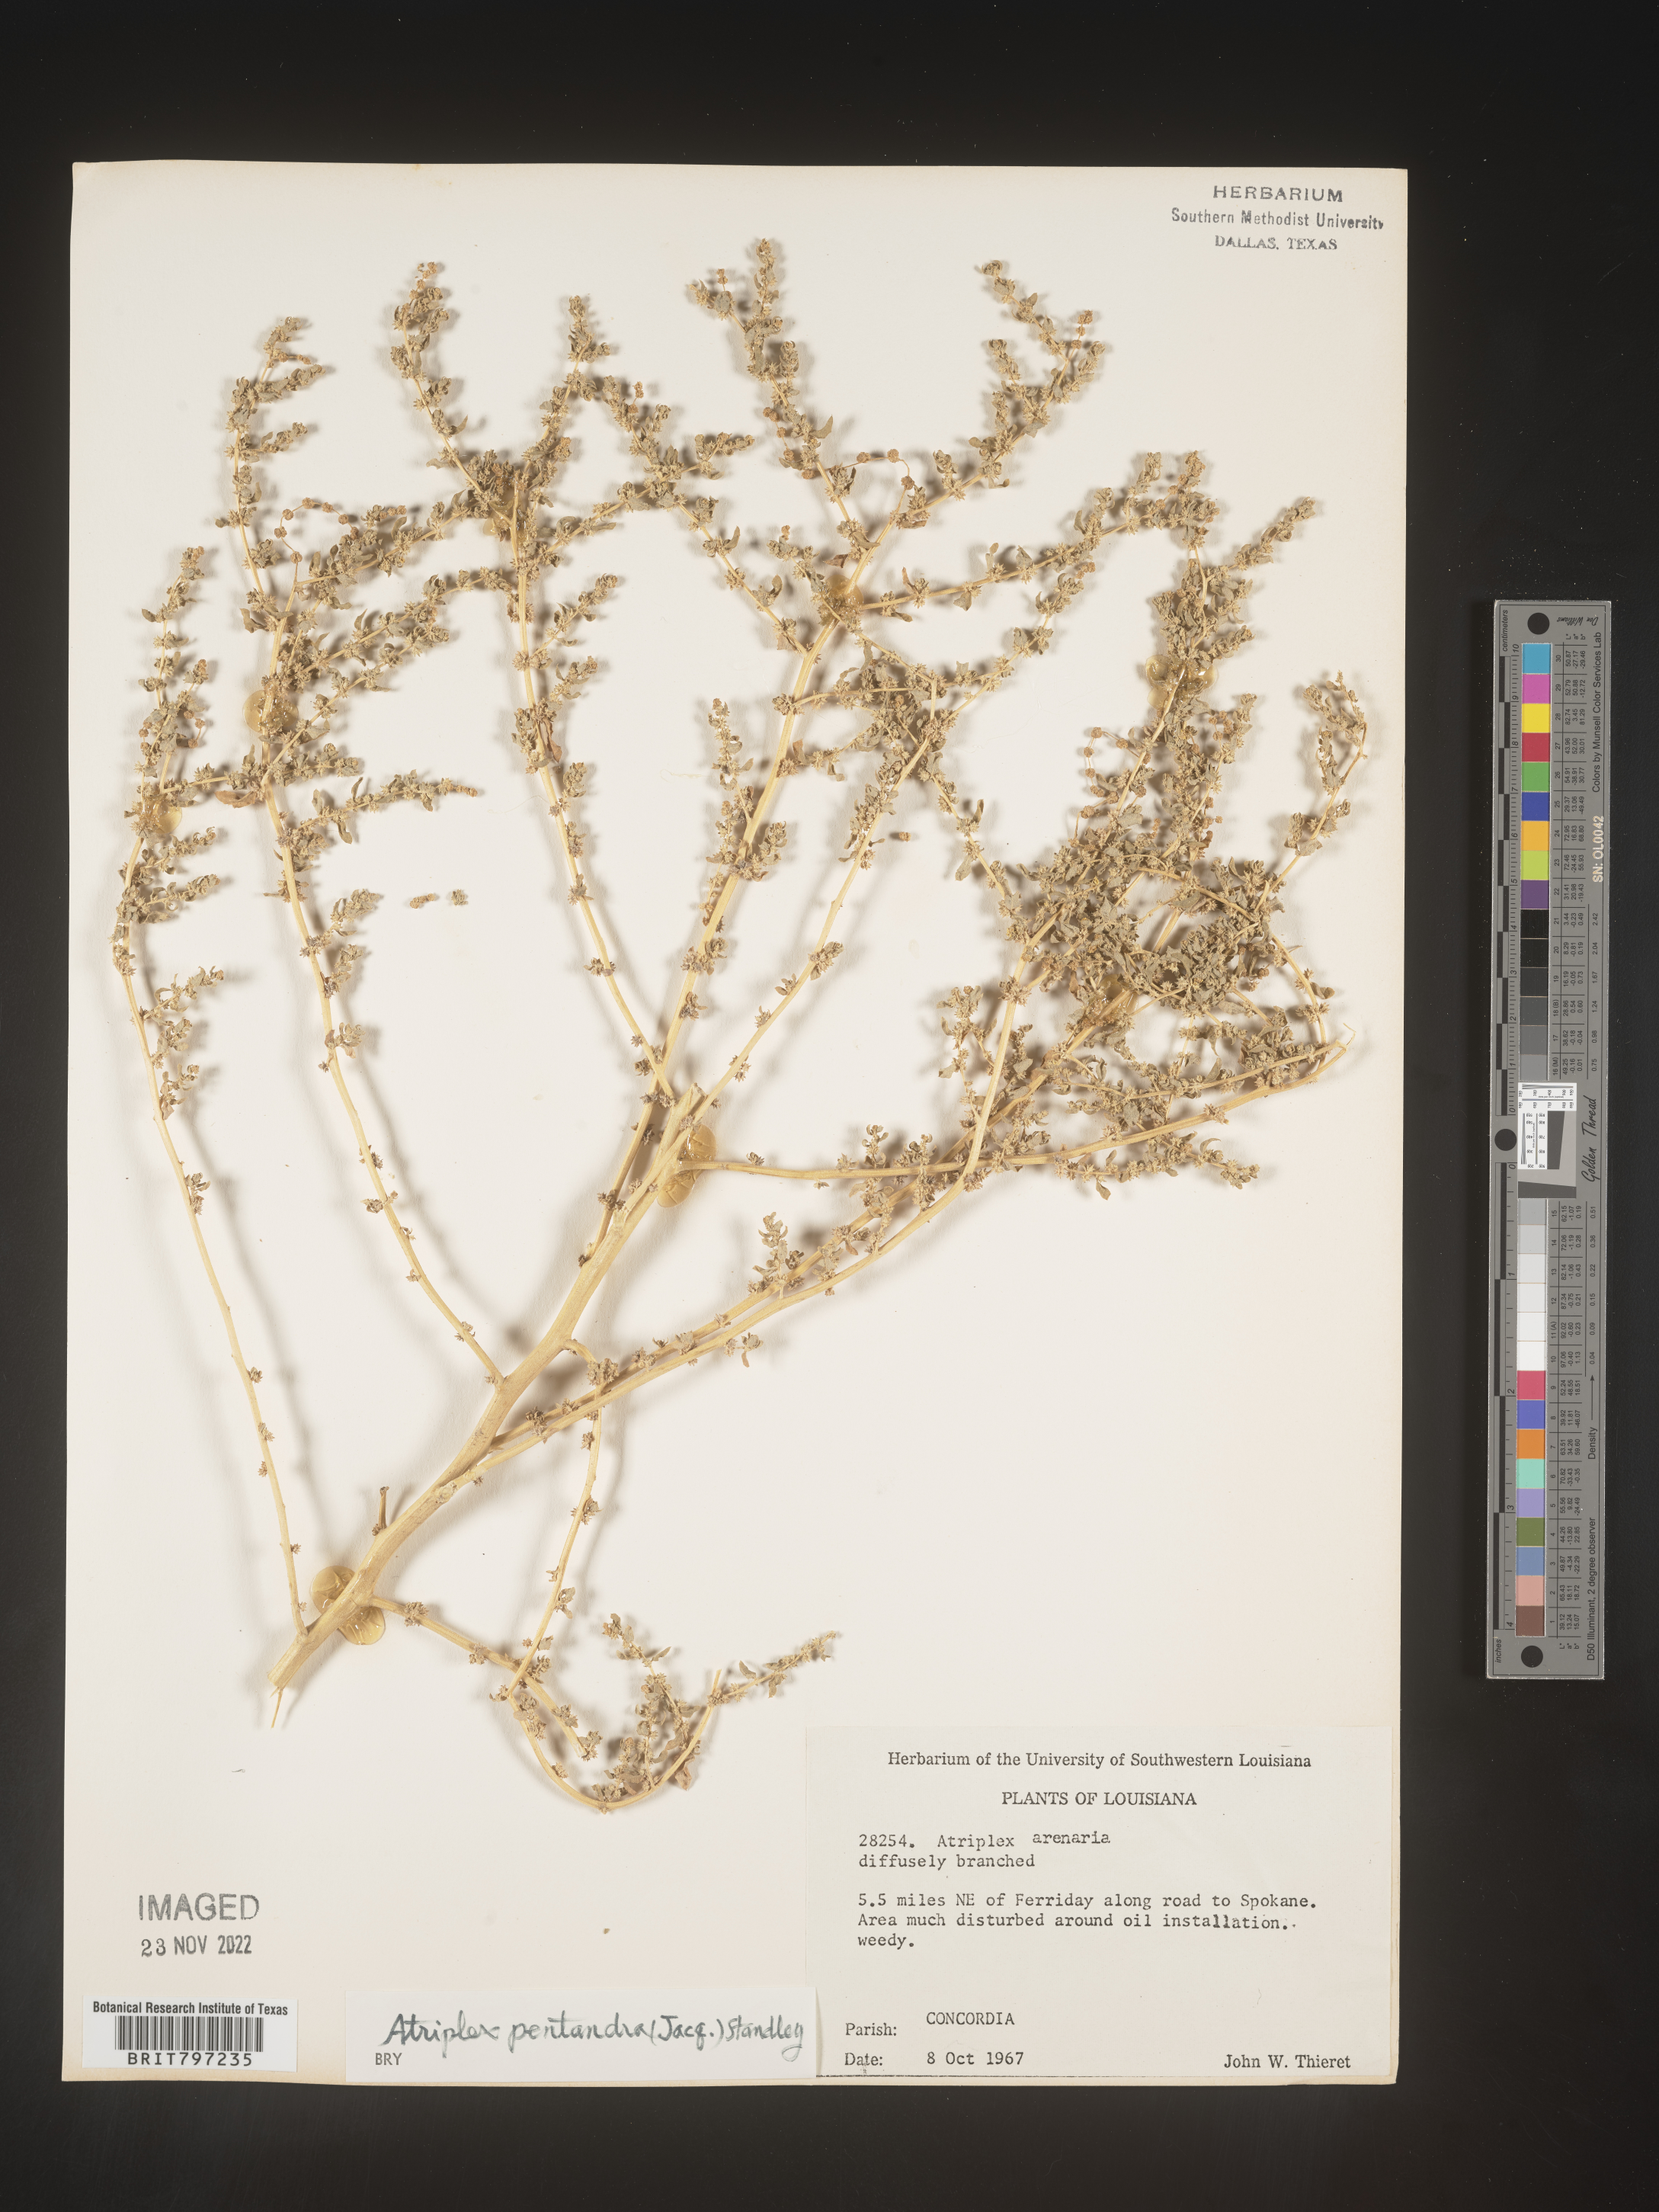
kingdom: Plantae
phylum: Tracheophyta
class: Magnoliopsida
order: Caryophyllales
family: Amaranthaceae
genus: Atriplex
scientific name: Atriplex
